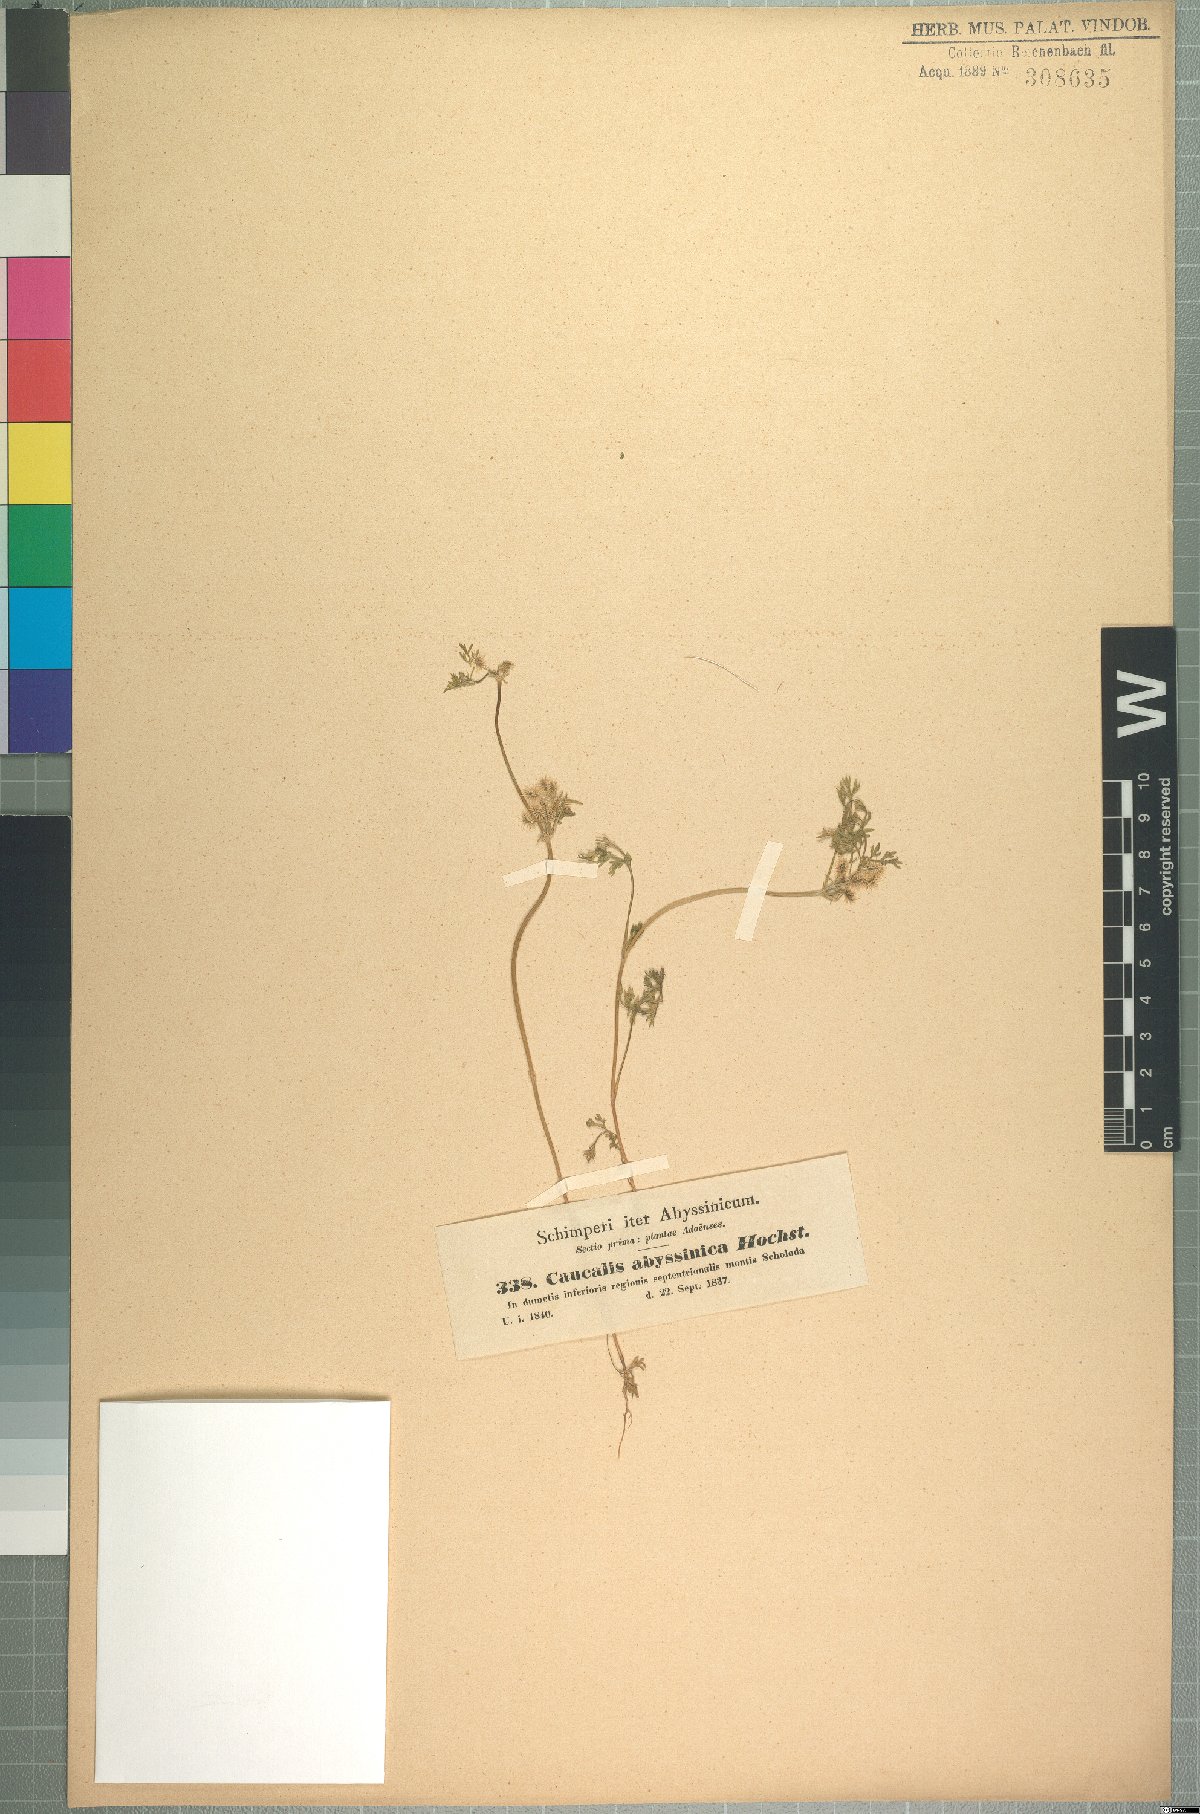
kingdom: Plantae
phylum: Tracheophyta
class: Magnoliopsida
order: Apiales
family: Apiaceae
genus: Daucus
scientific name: Daucus hochstetteri
